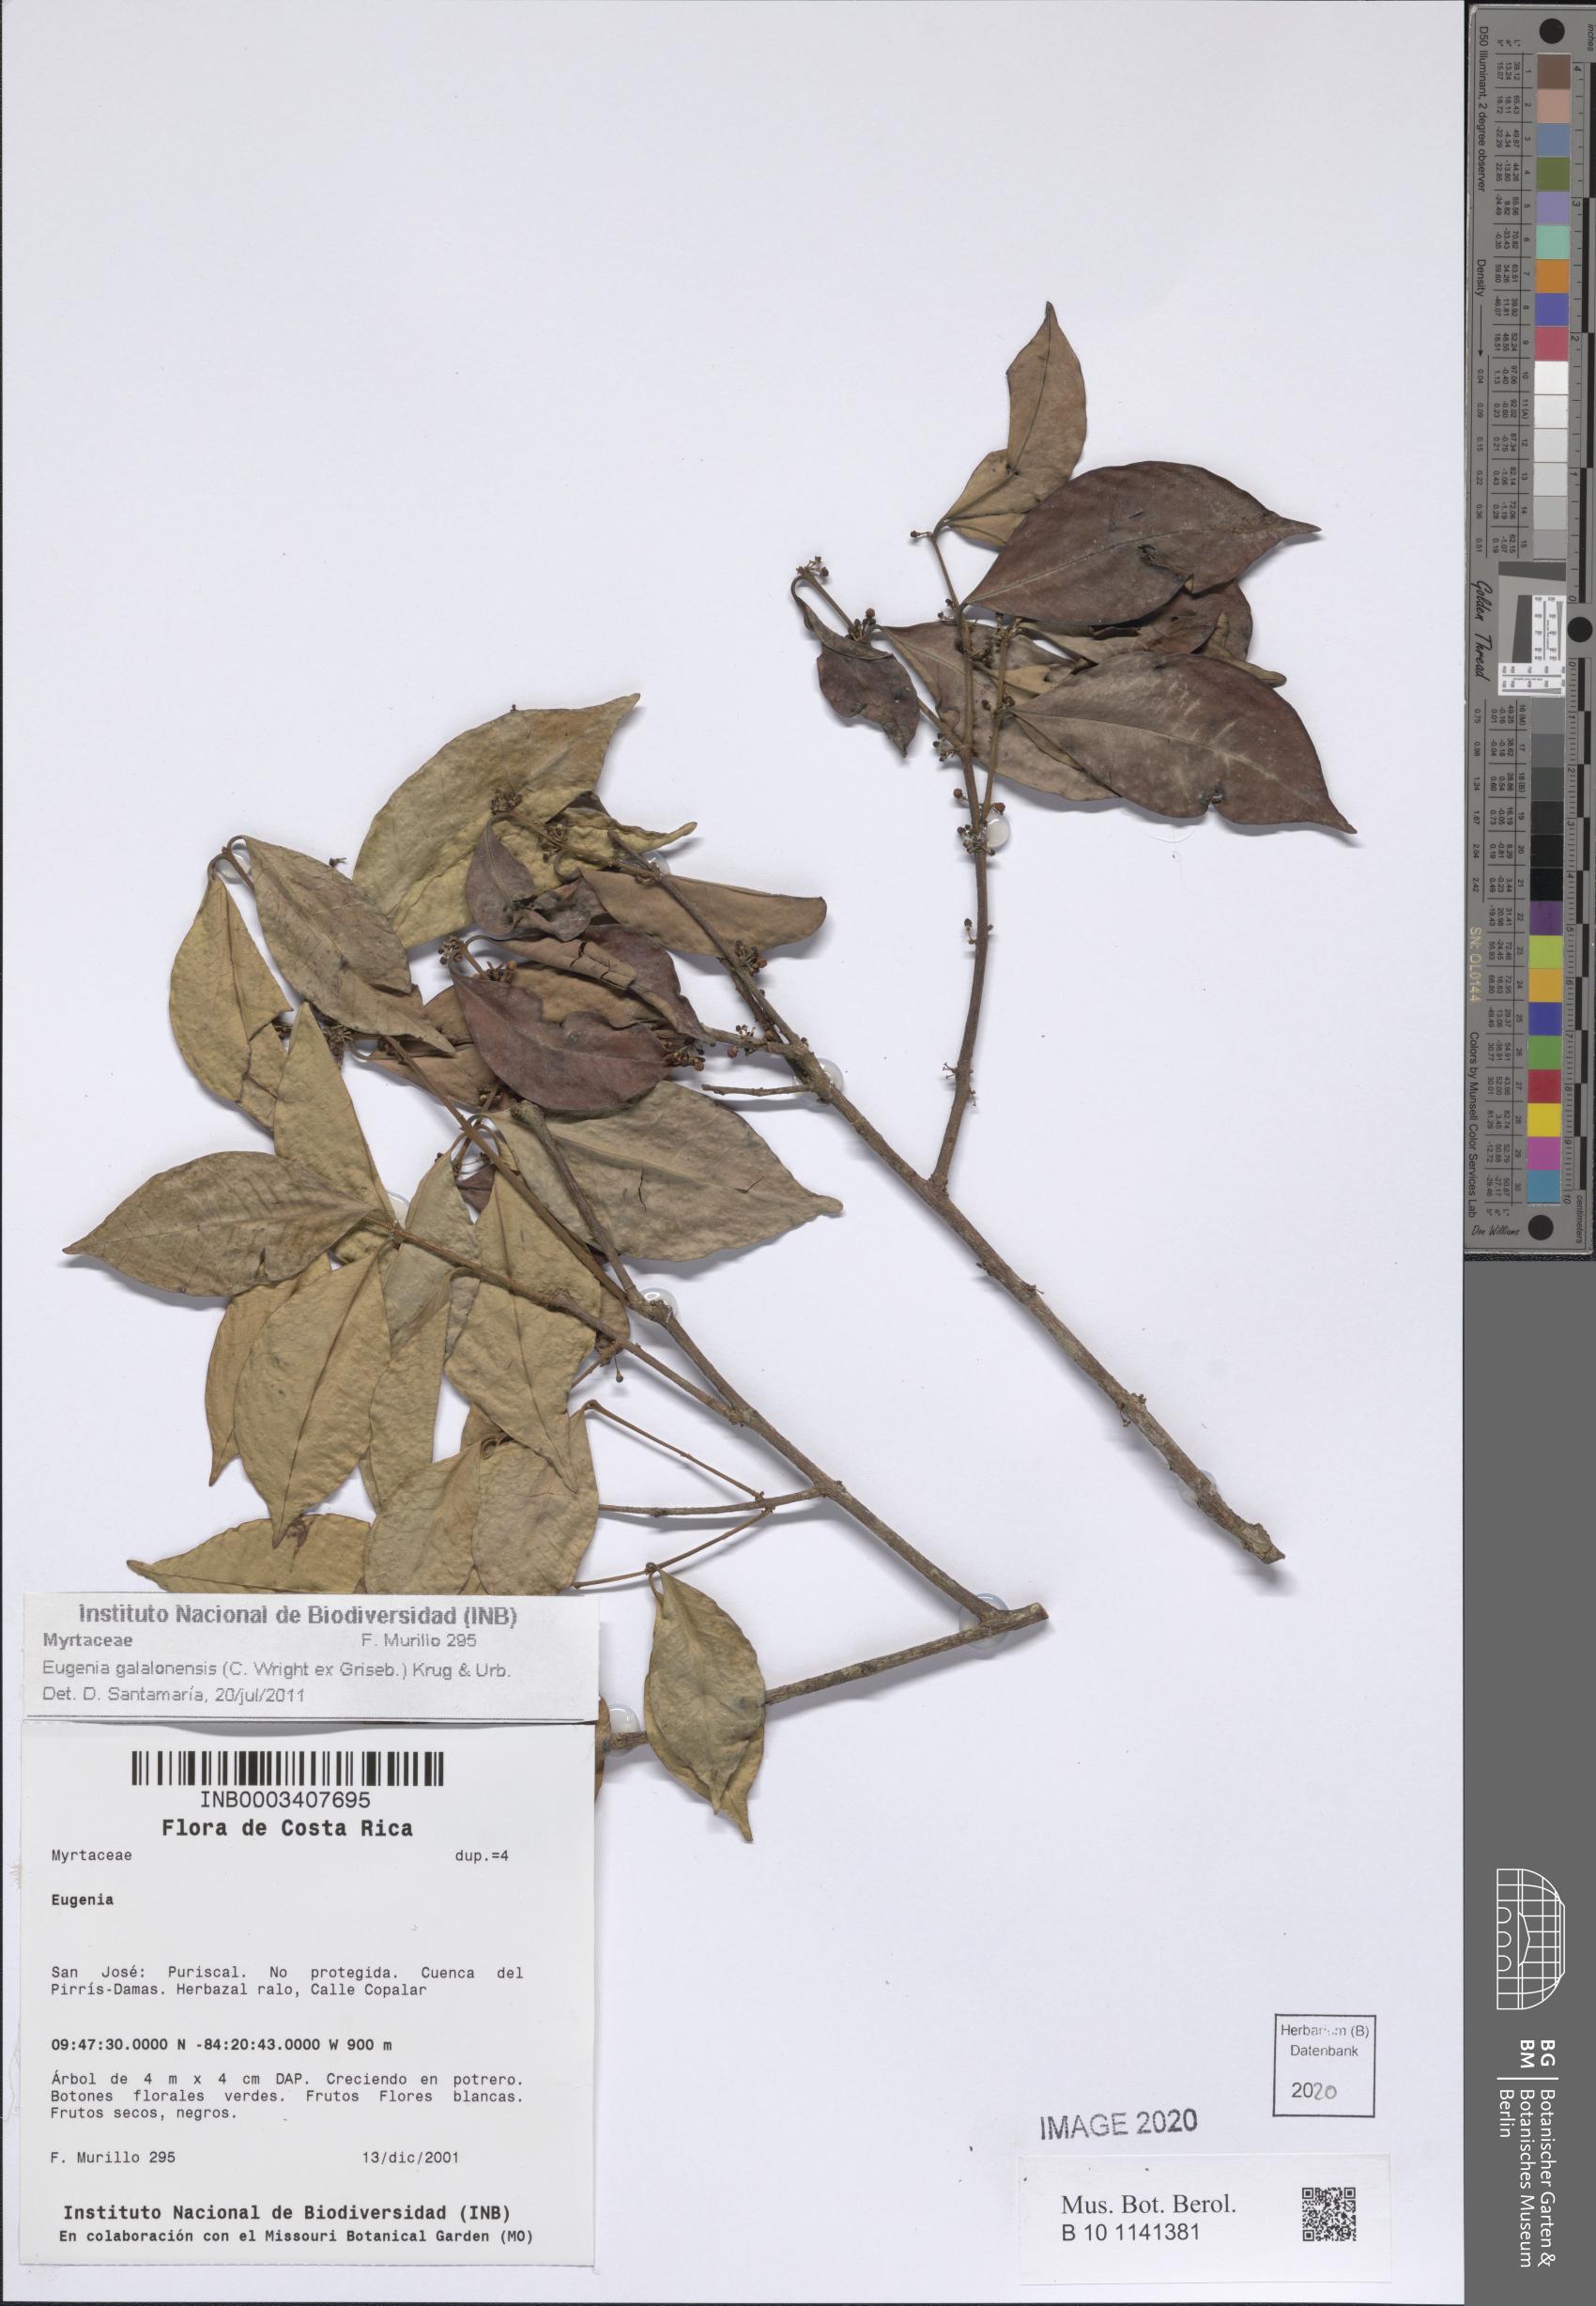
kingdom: Plantae
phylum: Tracheophyta
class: Magnoliopsida
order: Myrtales
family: Myrtaceae
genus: Eugenia
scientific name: Eugenia galalonensis
